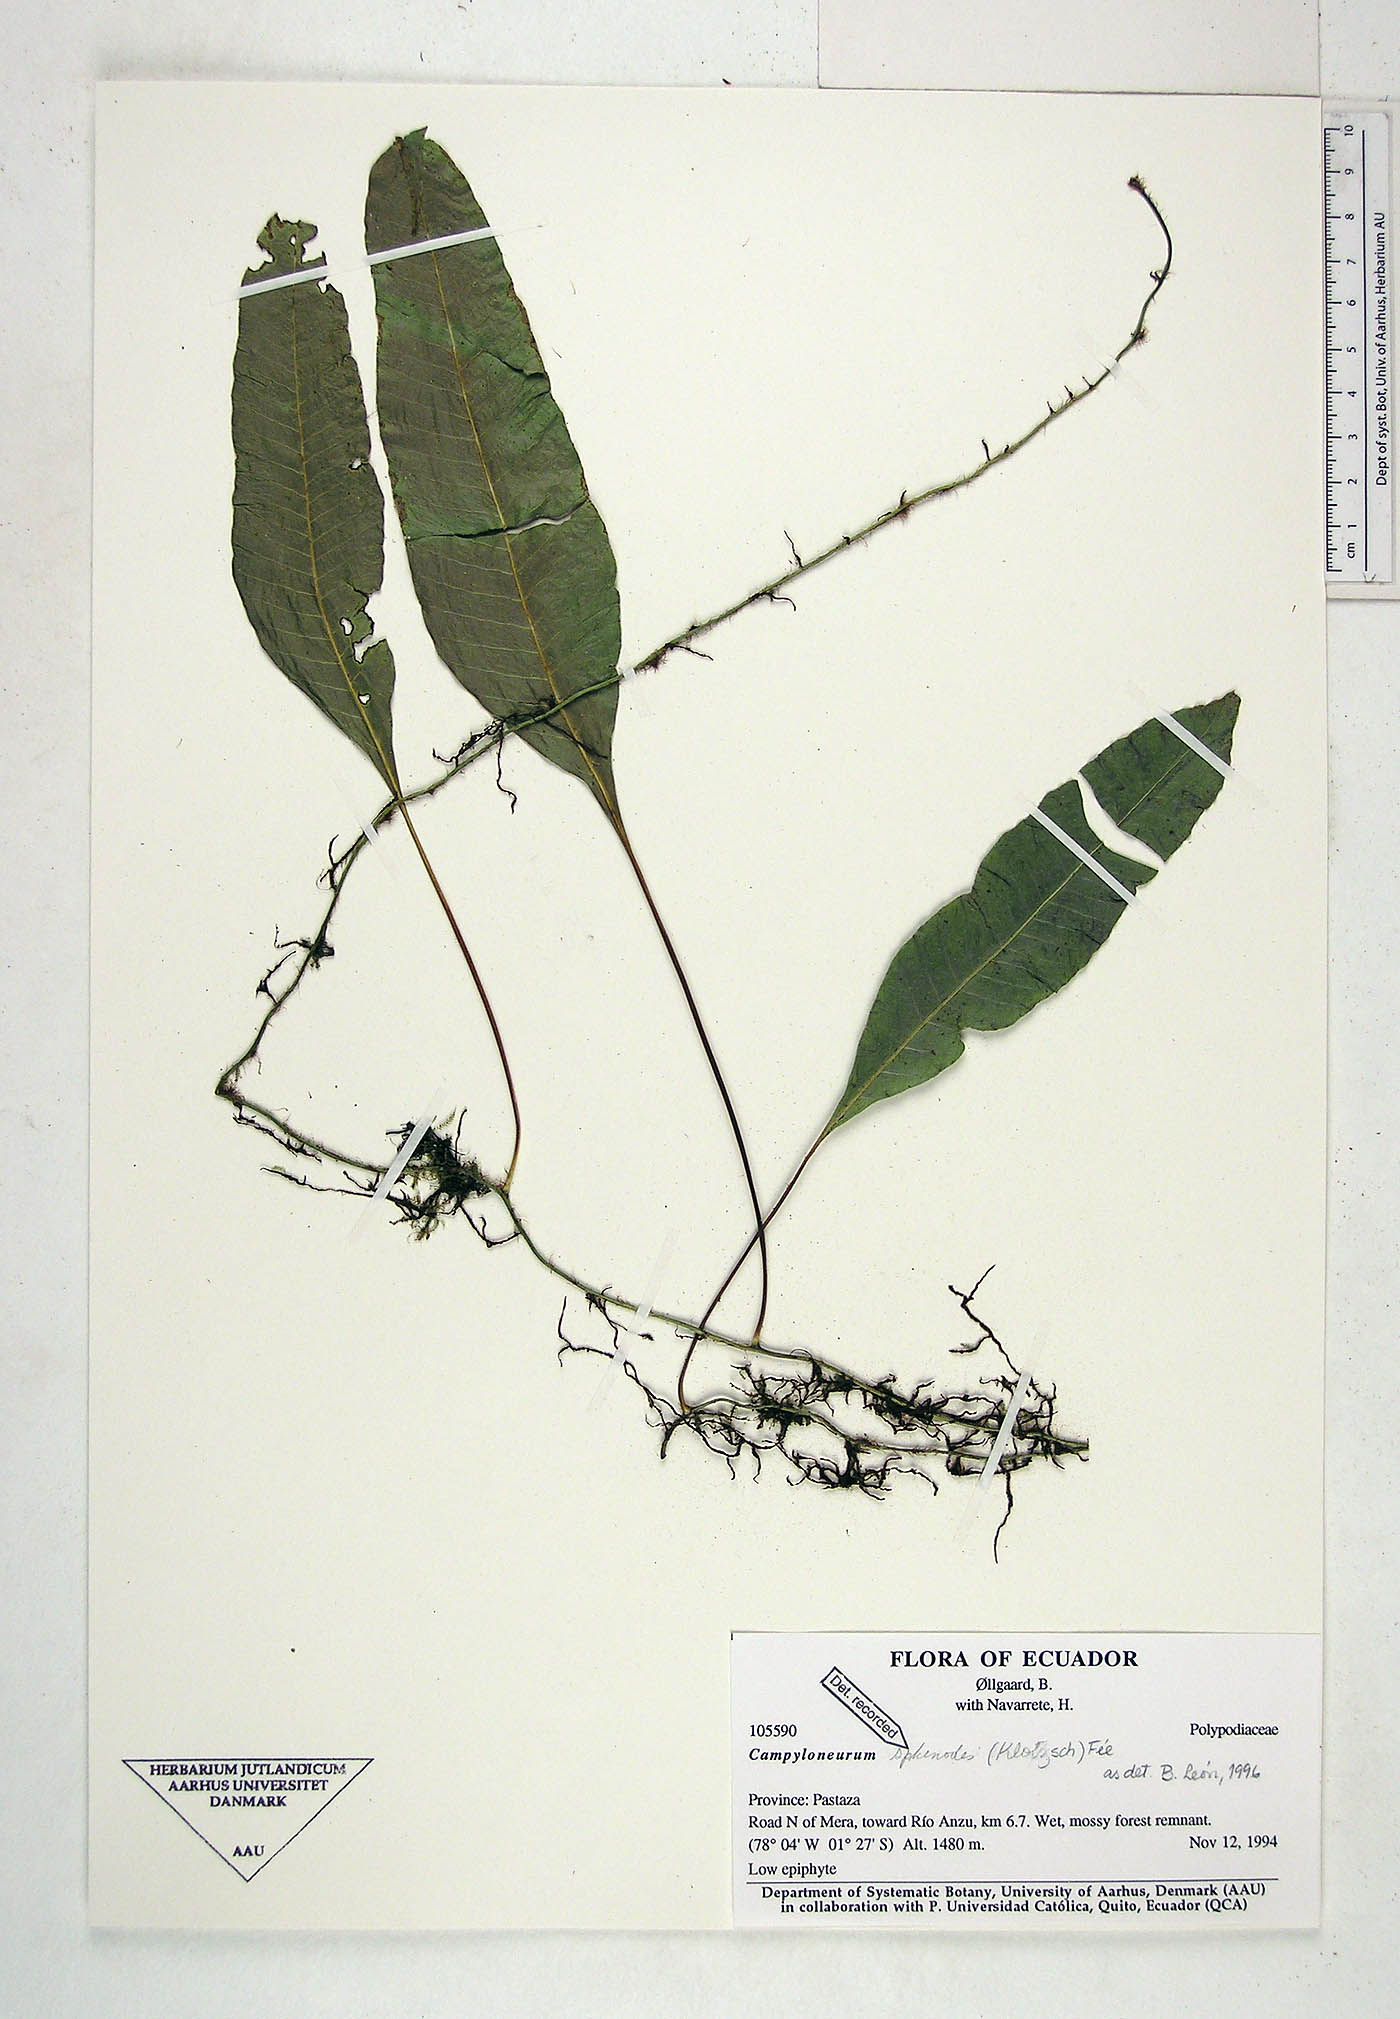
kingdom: Plantae
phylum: Tracheophyta
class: Polypodiopsida
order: Polypodiales
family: Polypodiaceae
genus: Campyloneurum
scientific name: Campyloneurum sphenodes
